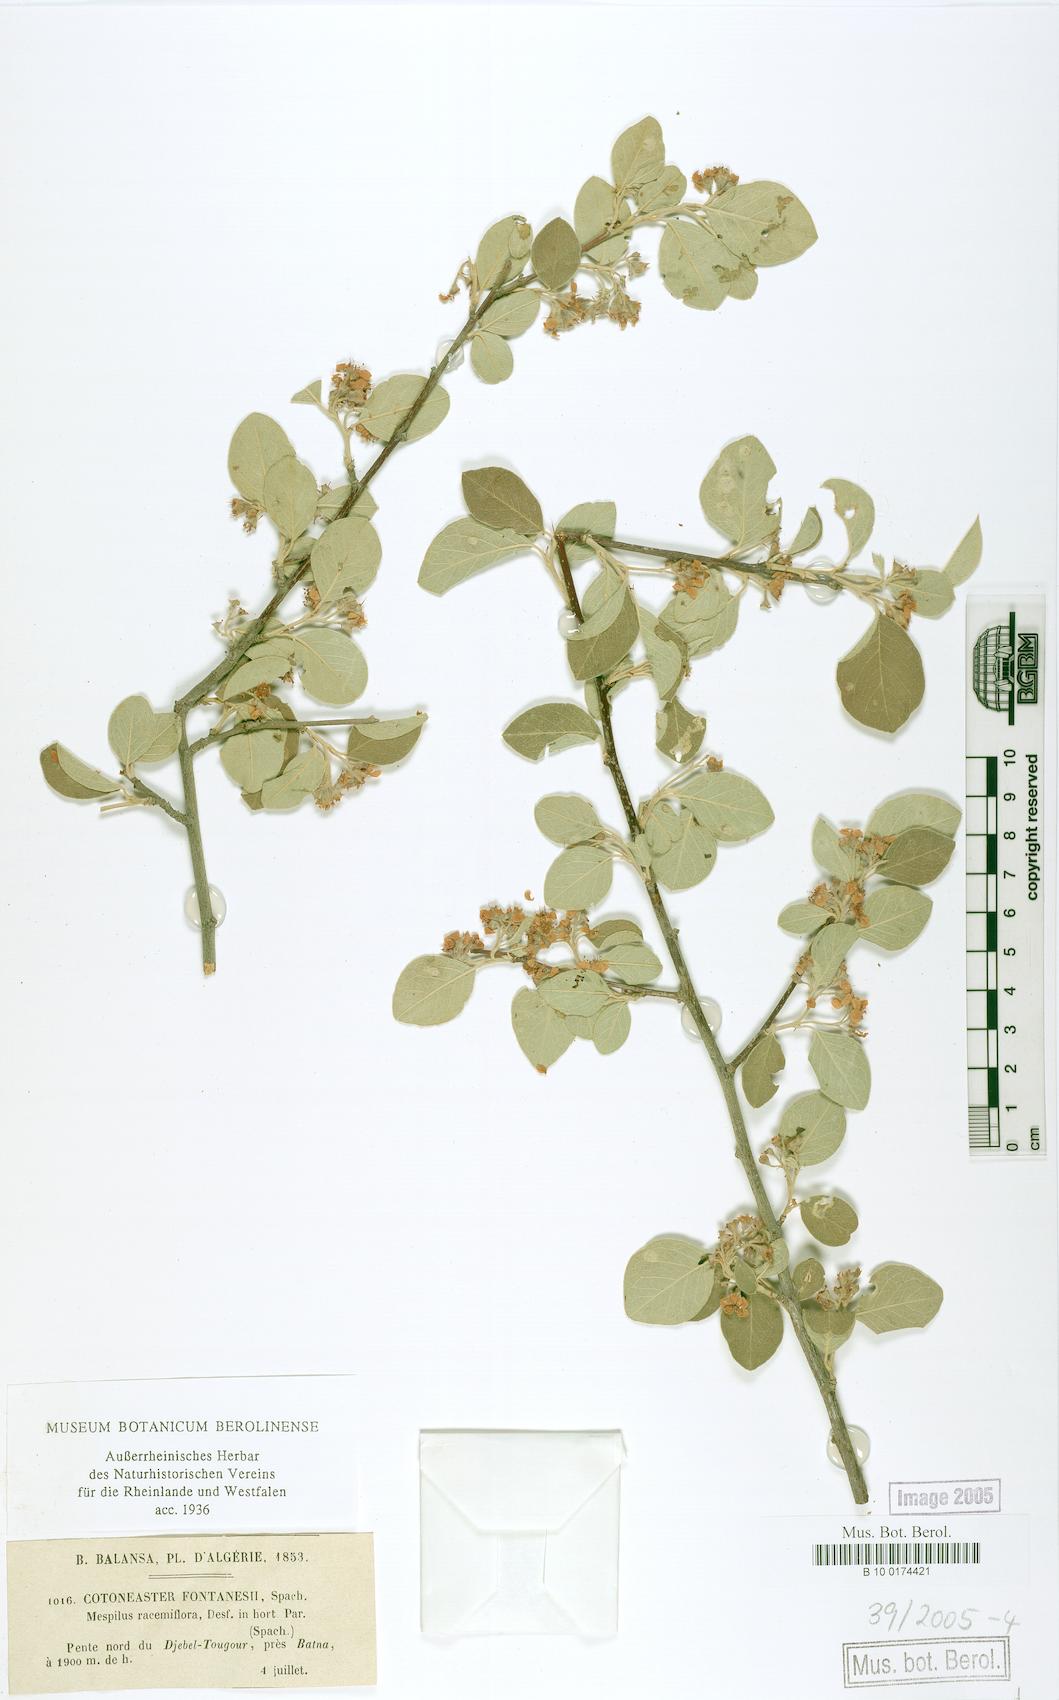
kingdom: Plantae
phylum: Tracheophyta
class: Magnoliopsida
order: Rosales
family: Rosaceae
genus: Cotoneaster
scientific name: Cotoneaster granatensis
